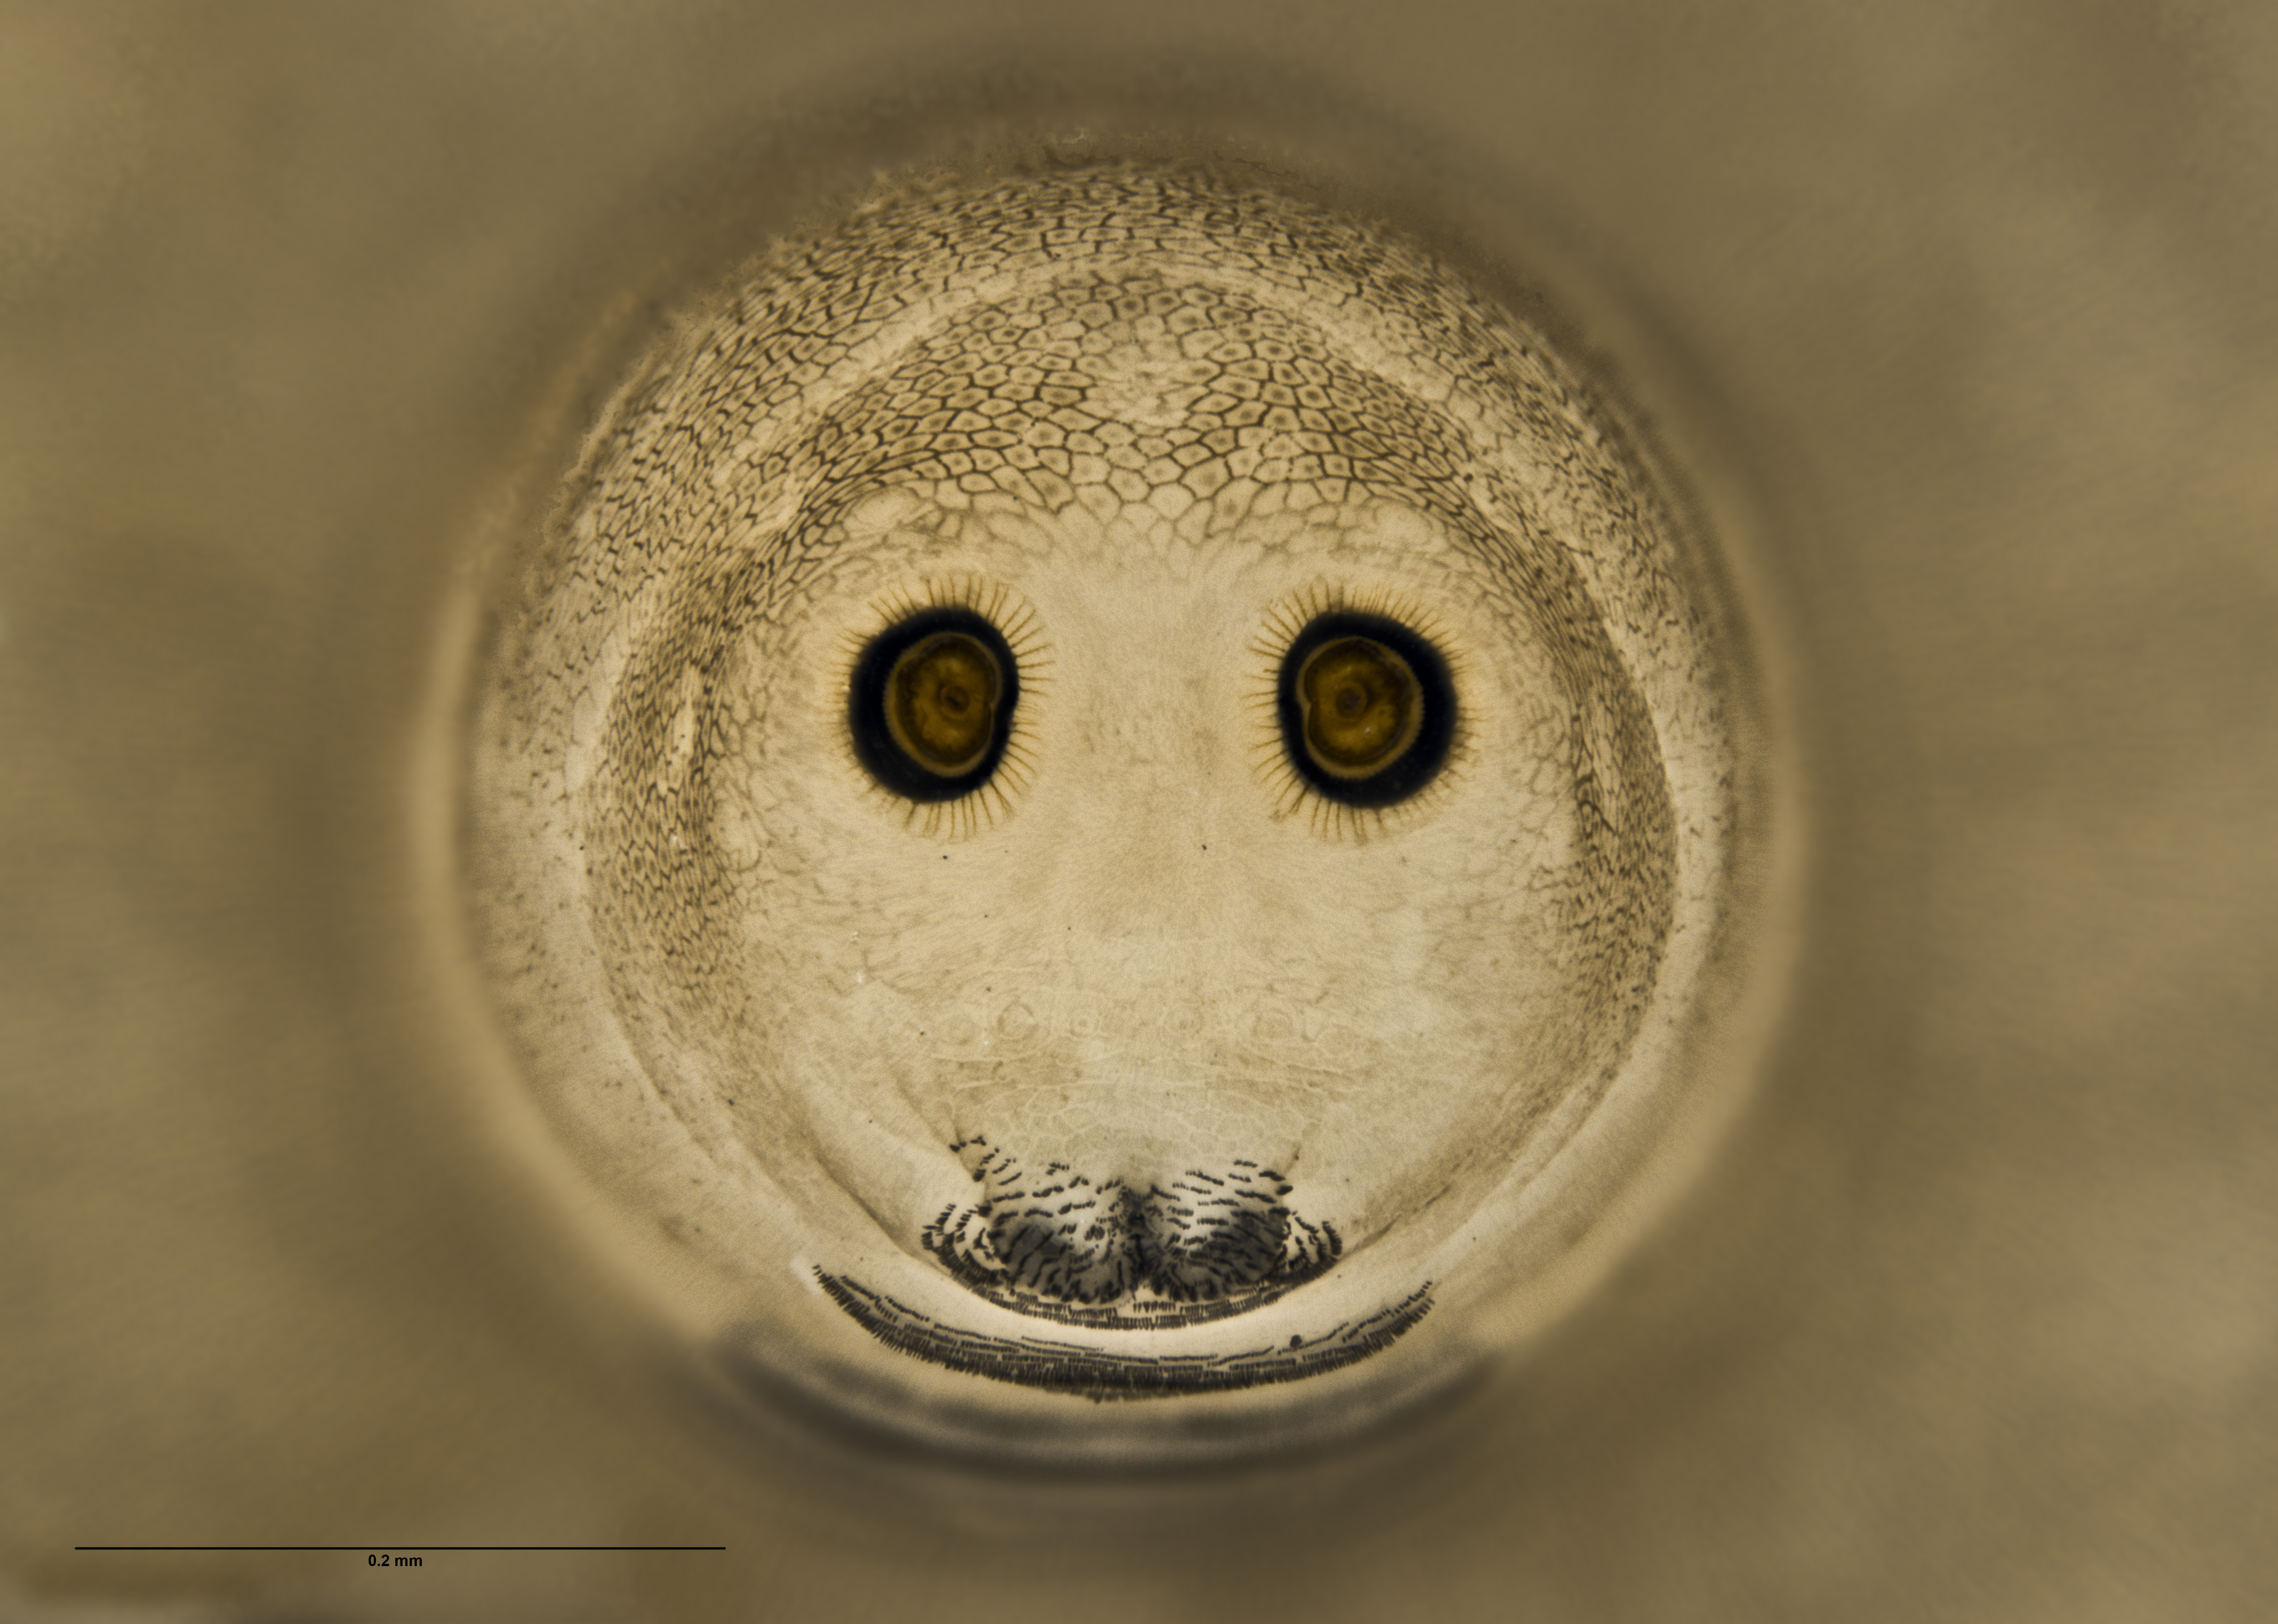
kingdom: Animalia
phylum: Arthropoda
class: Insecta
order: Diptera
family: Coelopidae
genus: Baeopterus
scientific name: Baeopterus philpotti
